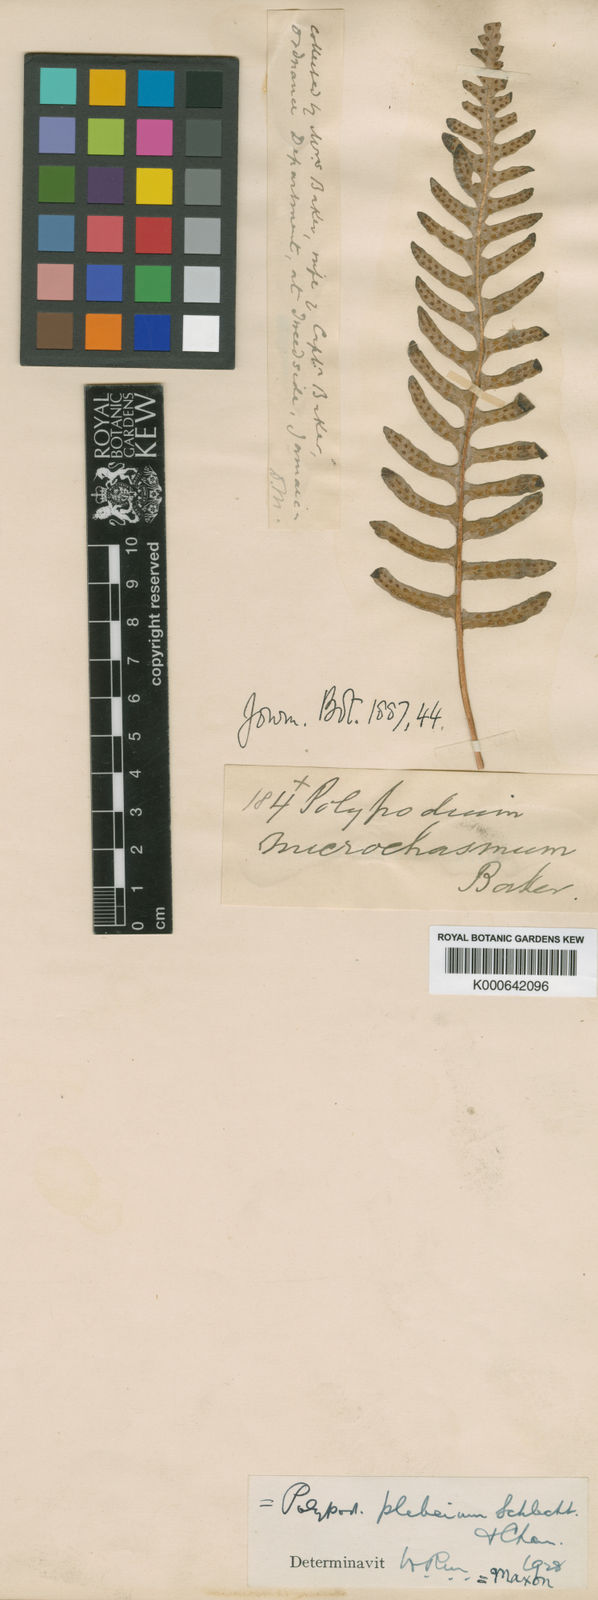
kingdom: Plantae
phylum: Tracheophyta
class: Polypodiopsida
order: Polypodiales
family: Polypodiaceae
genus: Polypodium
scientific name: Polypodium otites
